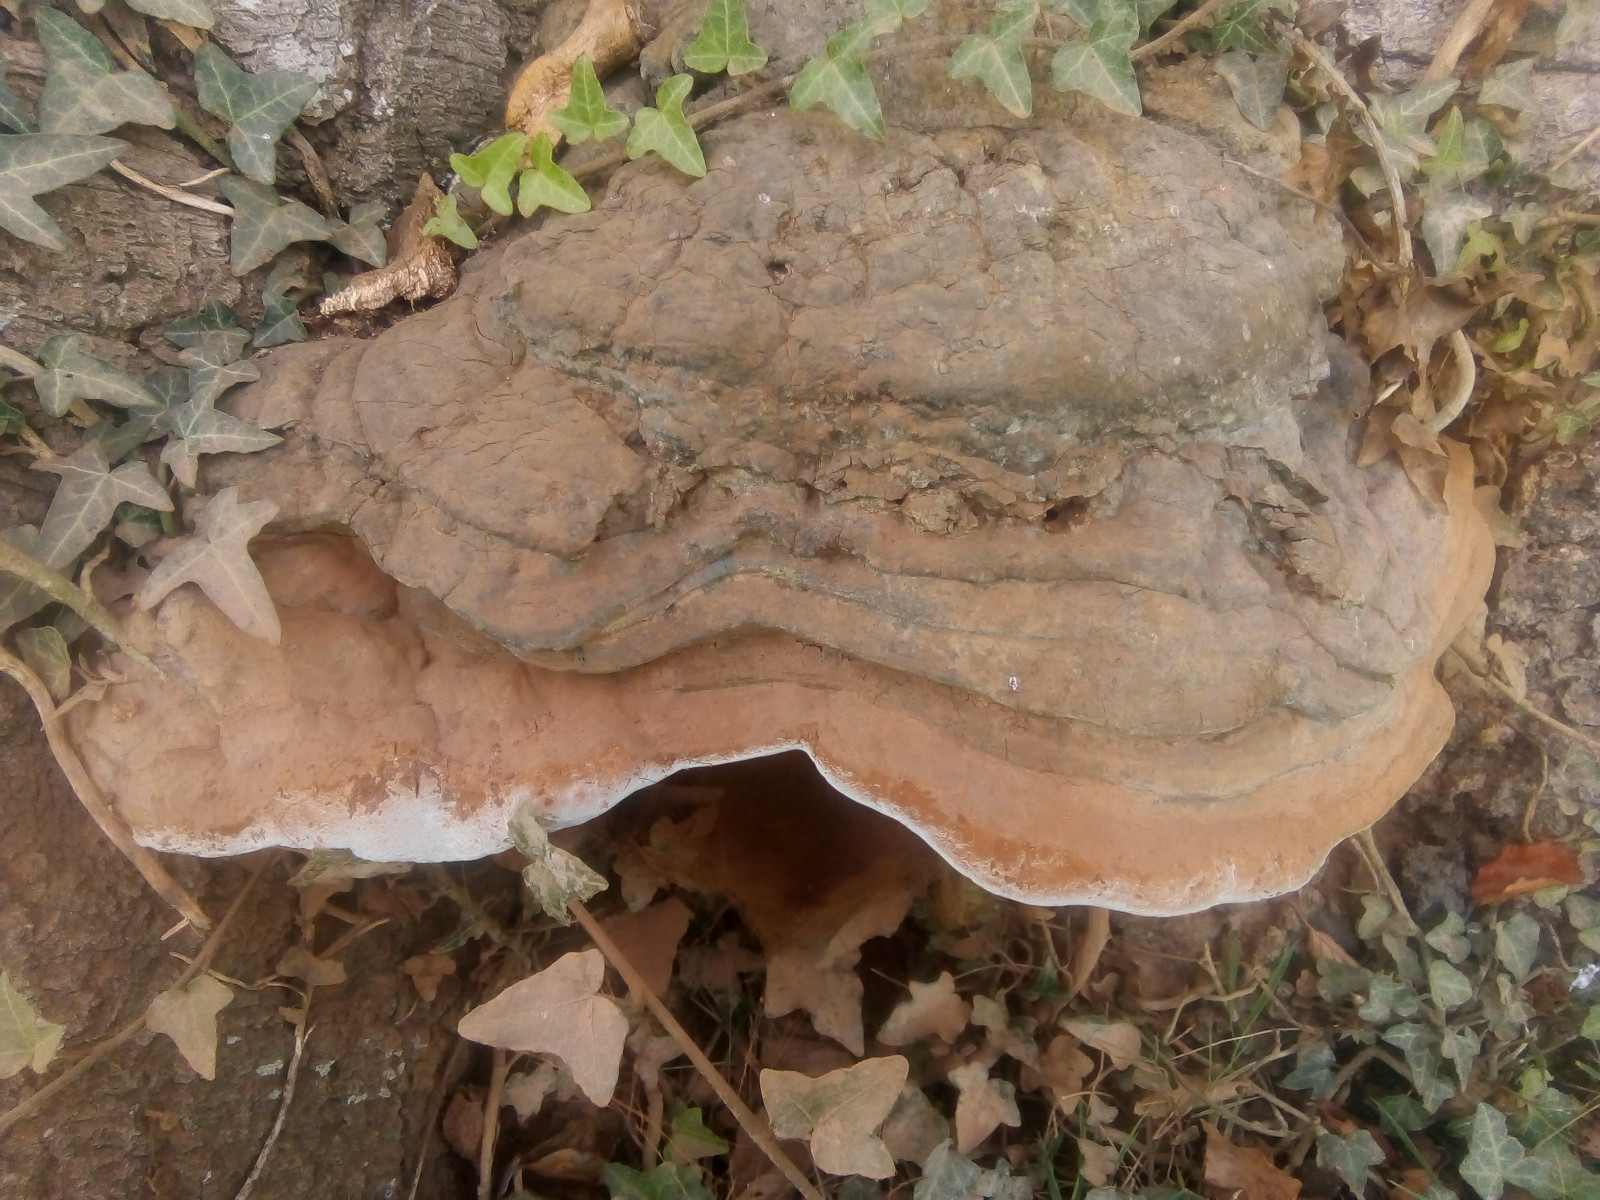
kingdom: Fungi
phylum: Basidiomycota
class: Agaricomycetes
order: Polyporales
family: Polyporaceae
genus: Ganoderma
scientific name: Ganoderma pfeifferi
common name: kobberrød lakporesvamp
